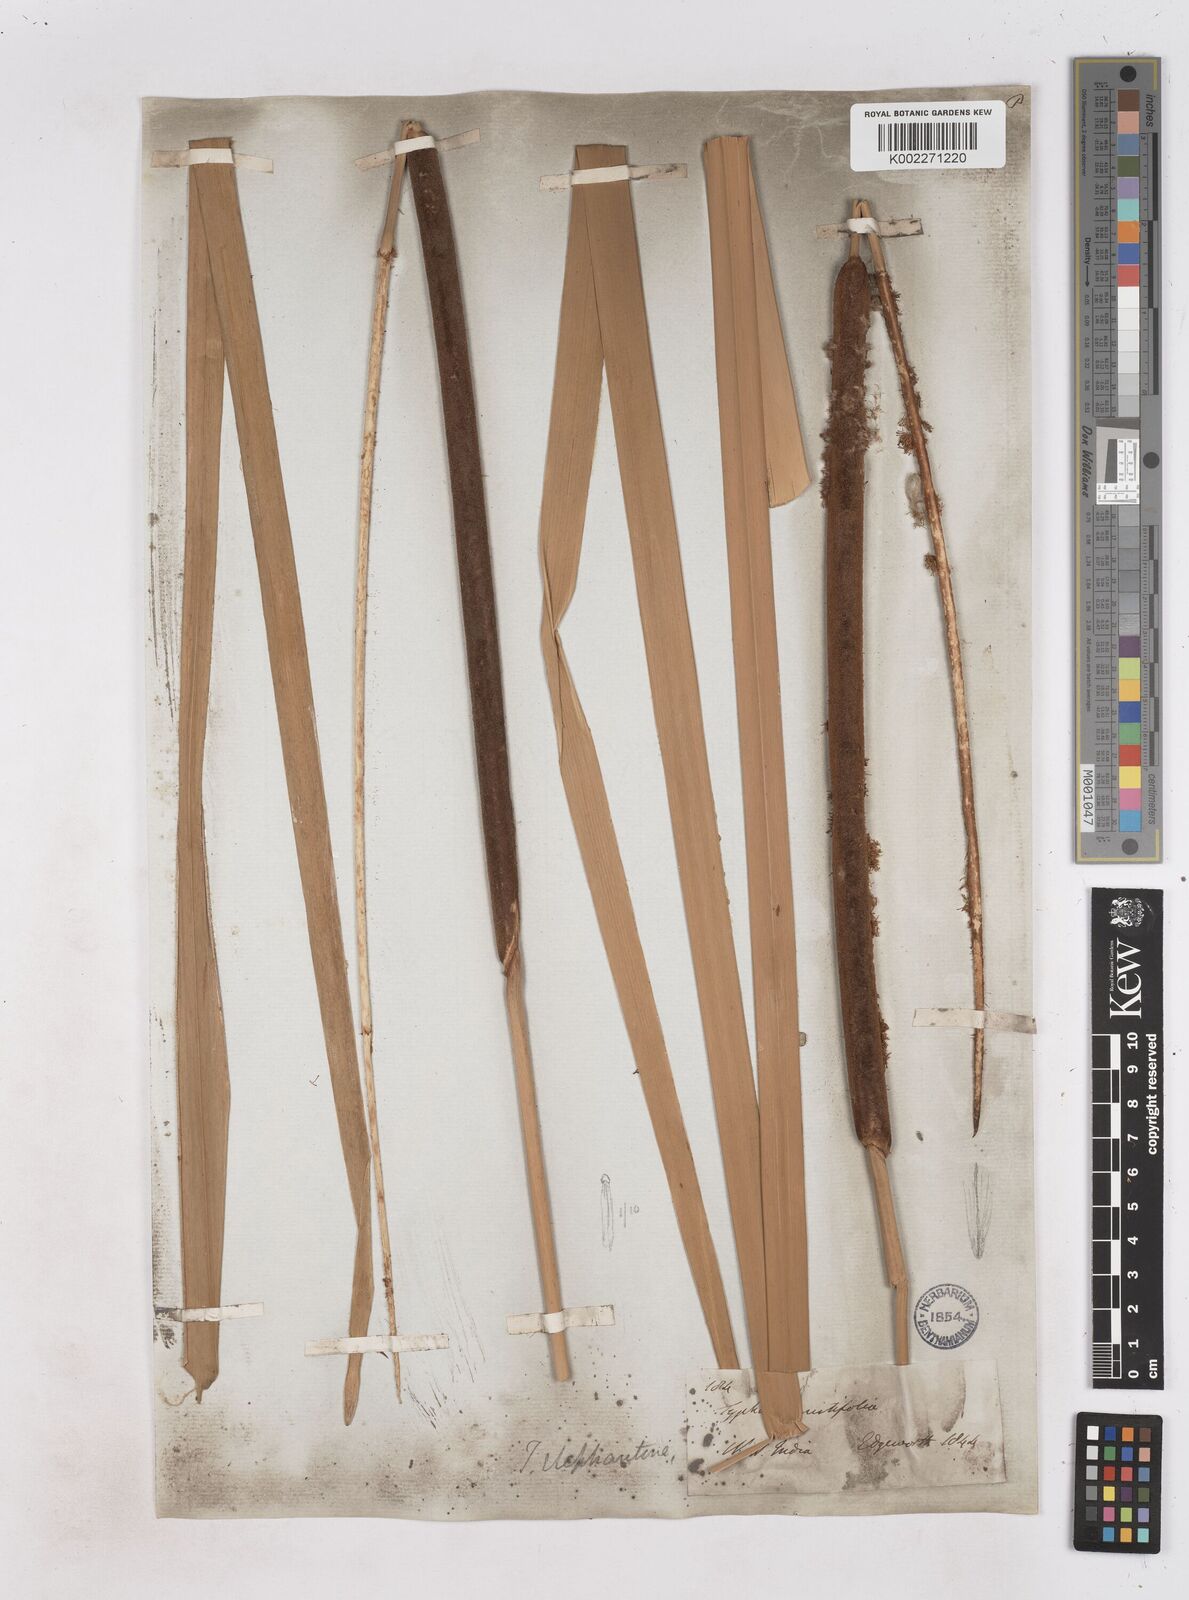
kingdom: Plantae
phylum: Tracheophyta
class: Liliopsida
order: Poales
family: Typhaceae
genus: Typha
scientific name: Typha elephantina
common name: Indian reed-grass
